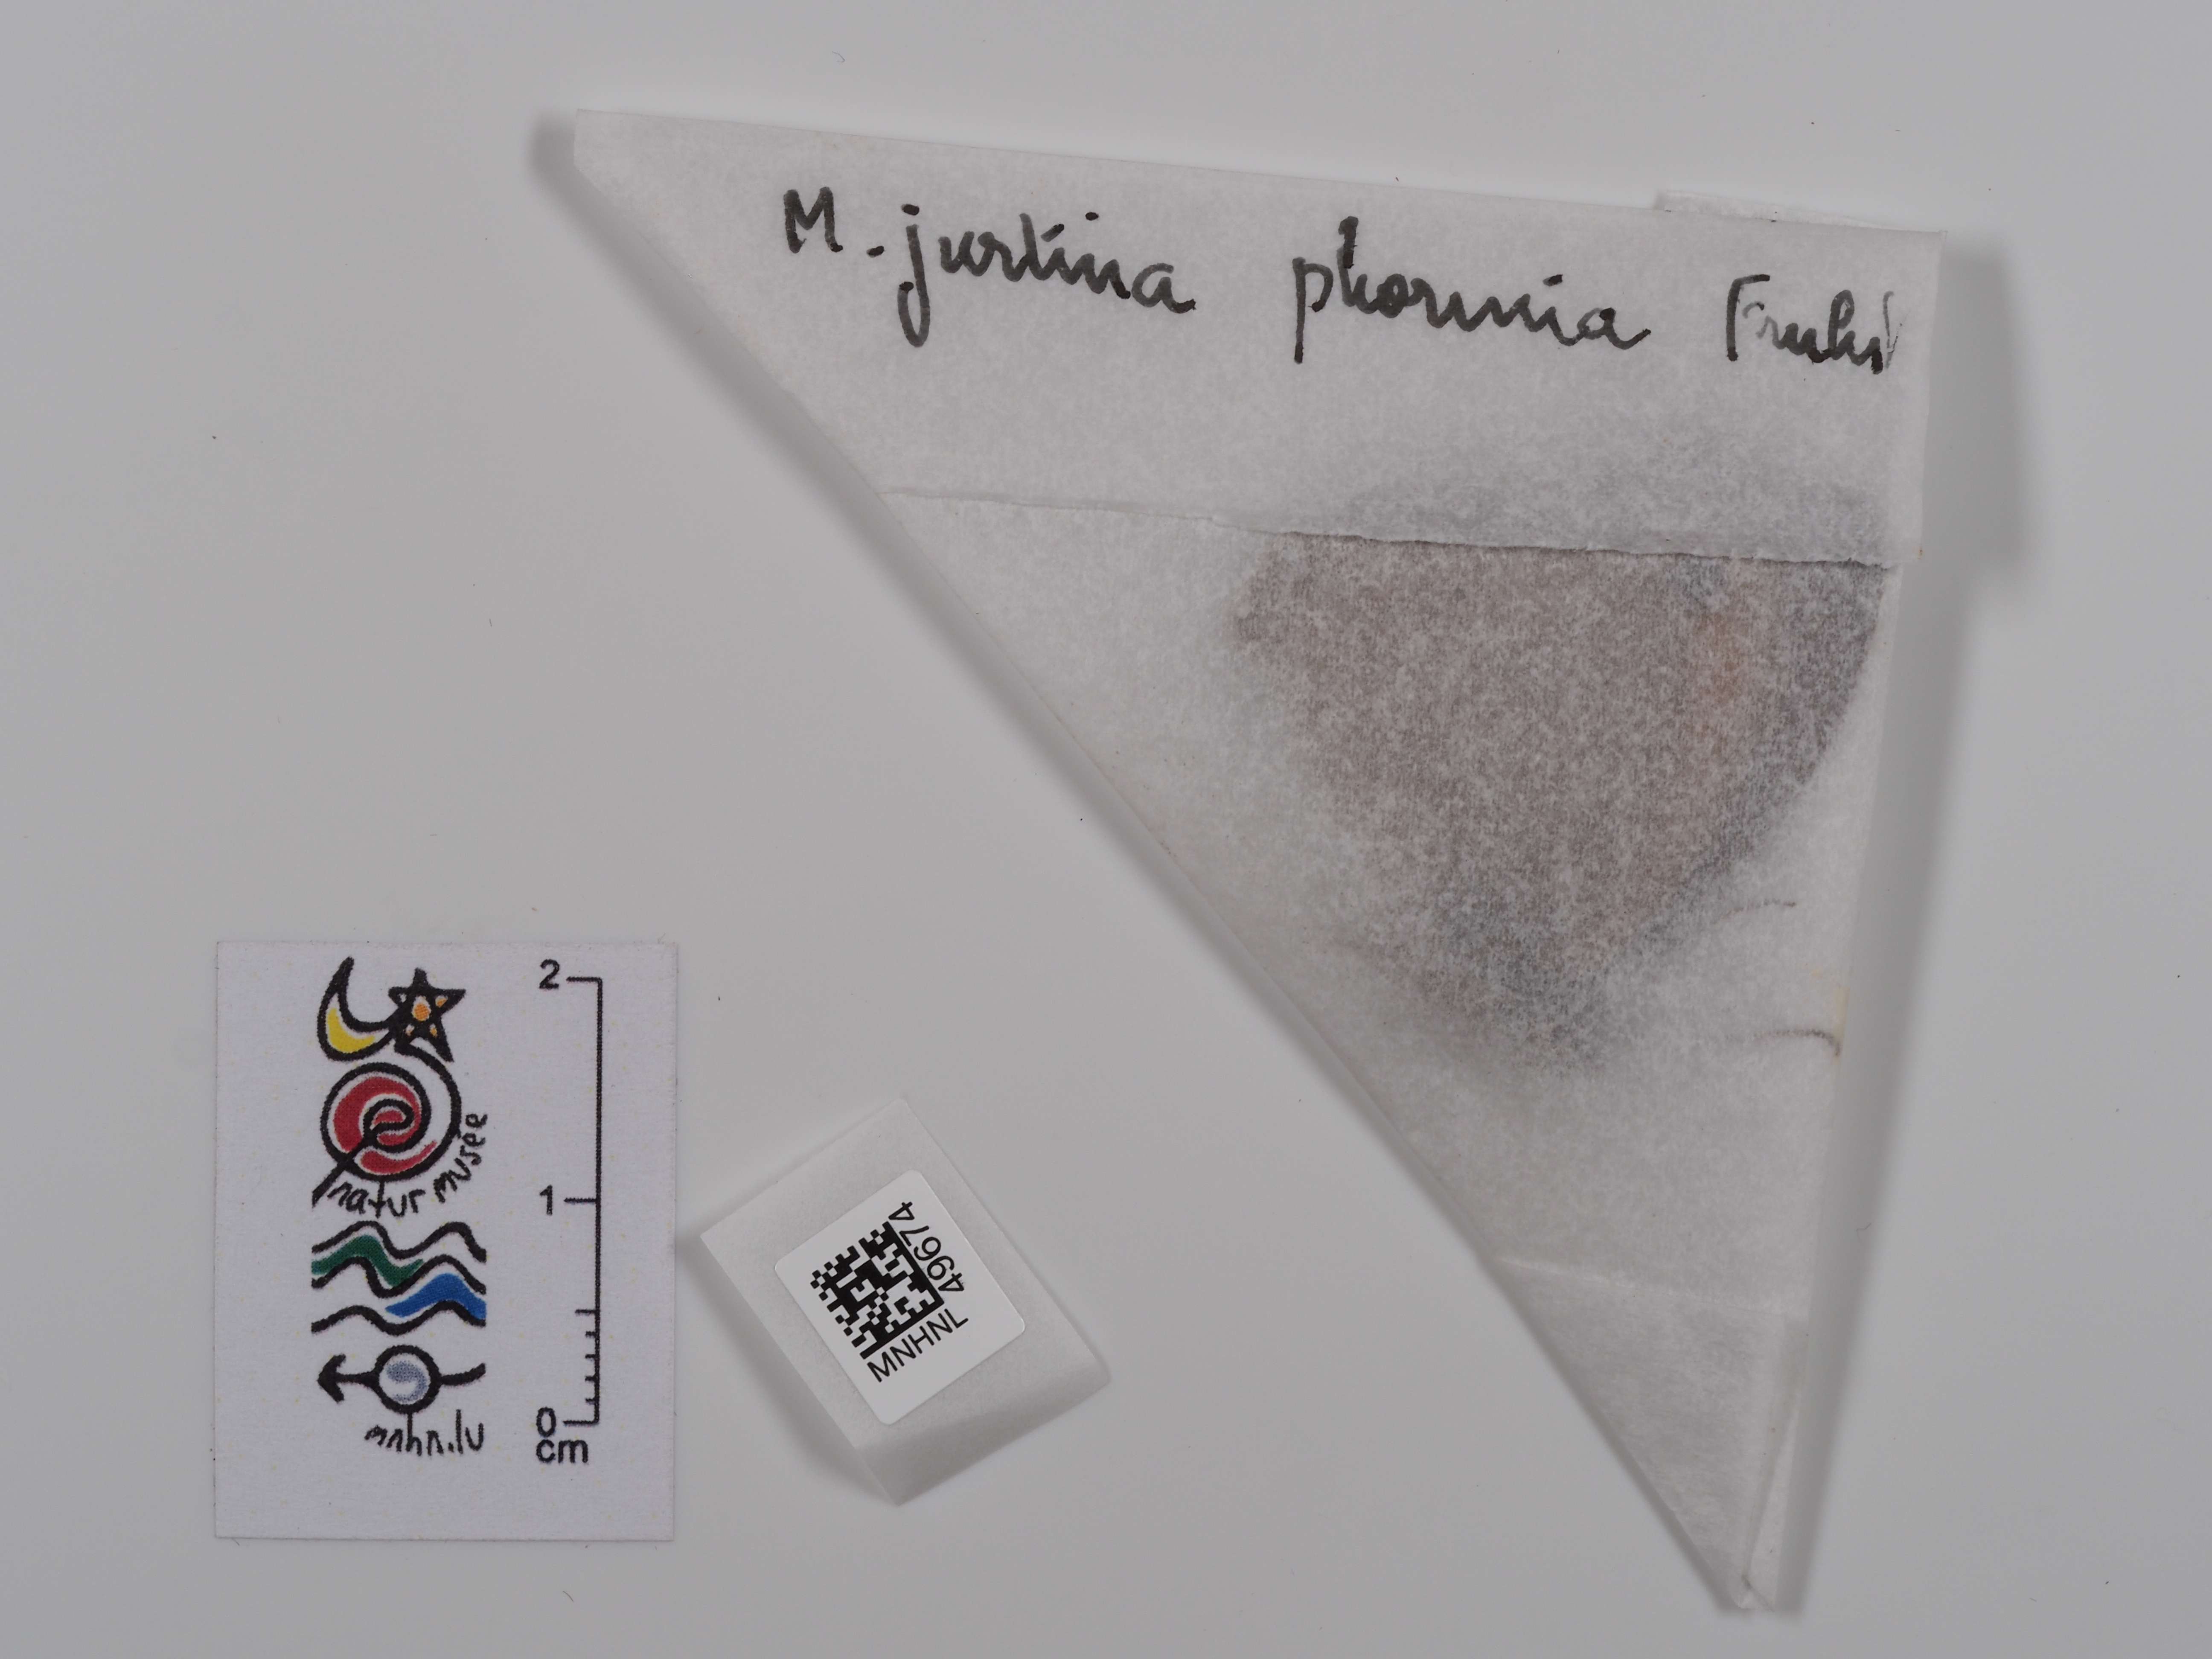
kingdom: Animalia
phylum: Arthropoda
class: Insecta
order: Lepidoptera
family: Nymphalidae
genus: Maniola
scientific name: Maniola jurtina
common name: Meadow brown
